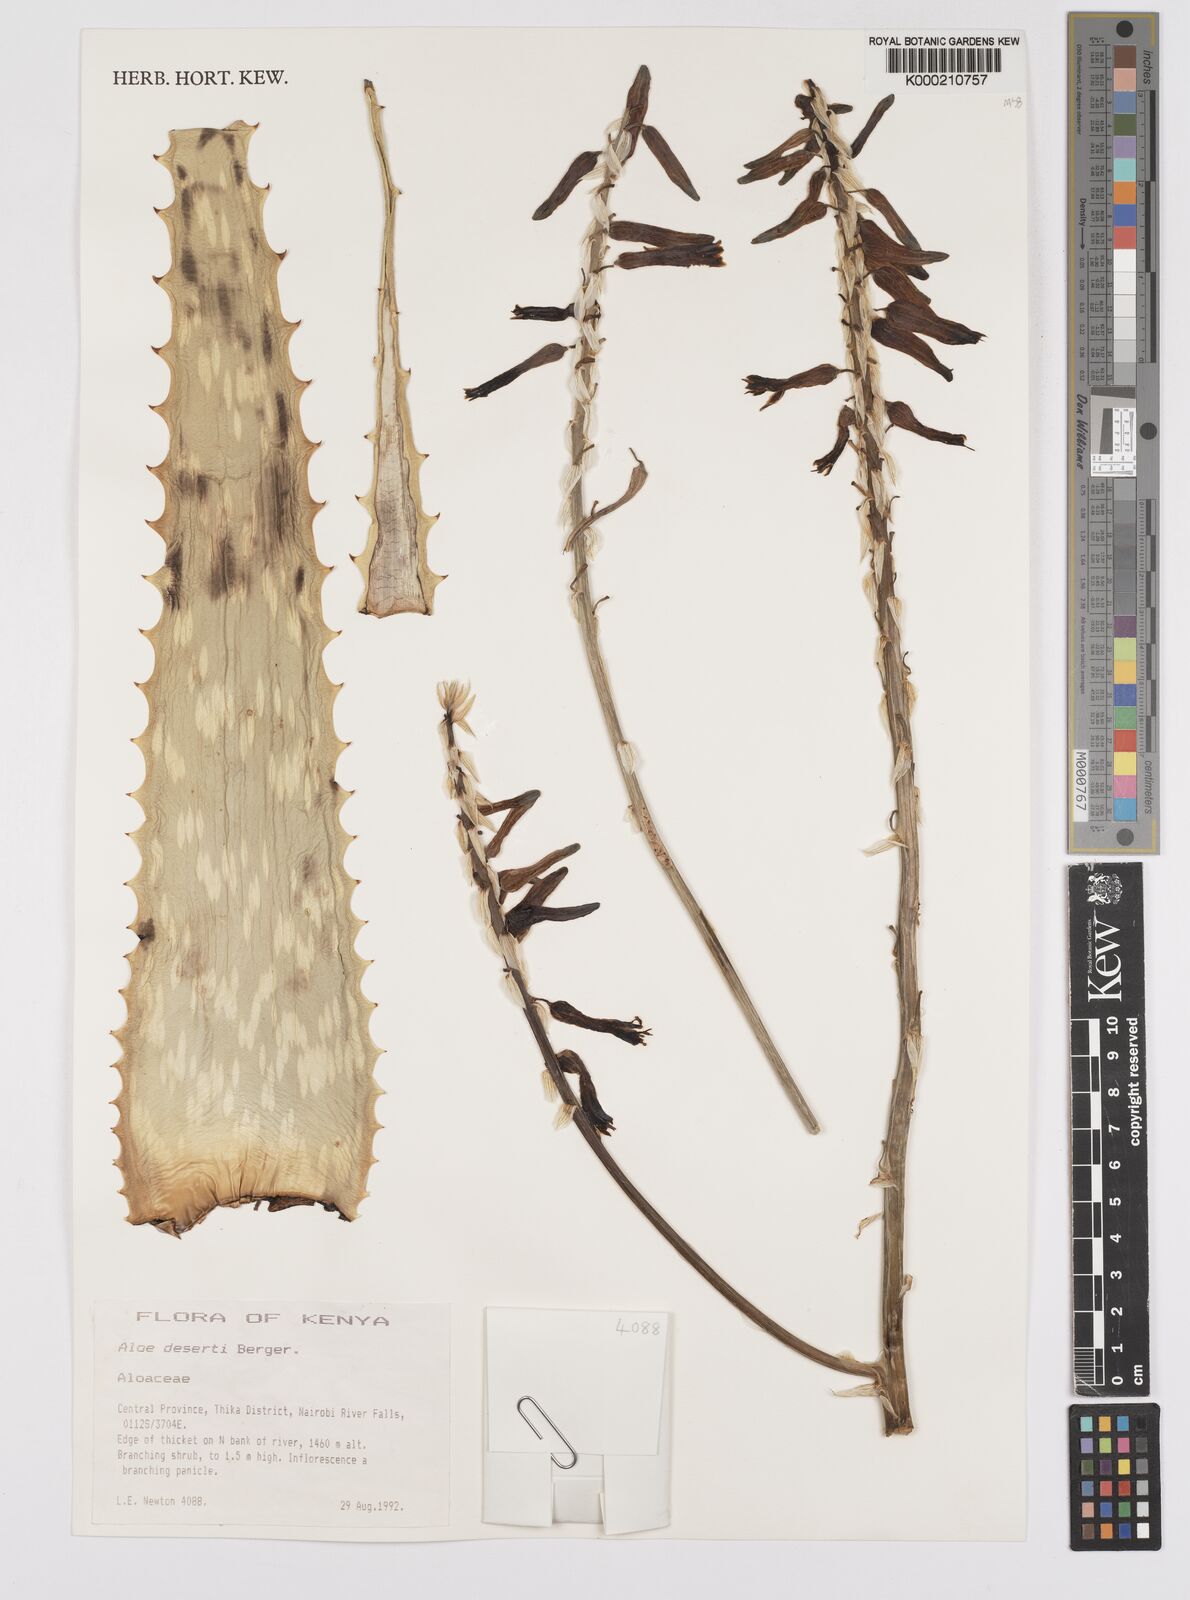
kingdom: Plantae
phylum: Tracheophyta
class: Liliopsida
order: Asparagales
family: Asphodelaceae
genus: Aloe
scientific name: Aloe deserti
